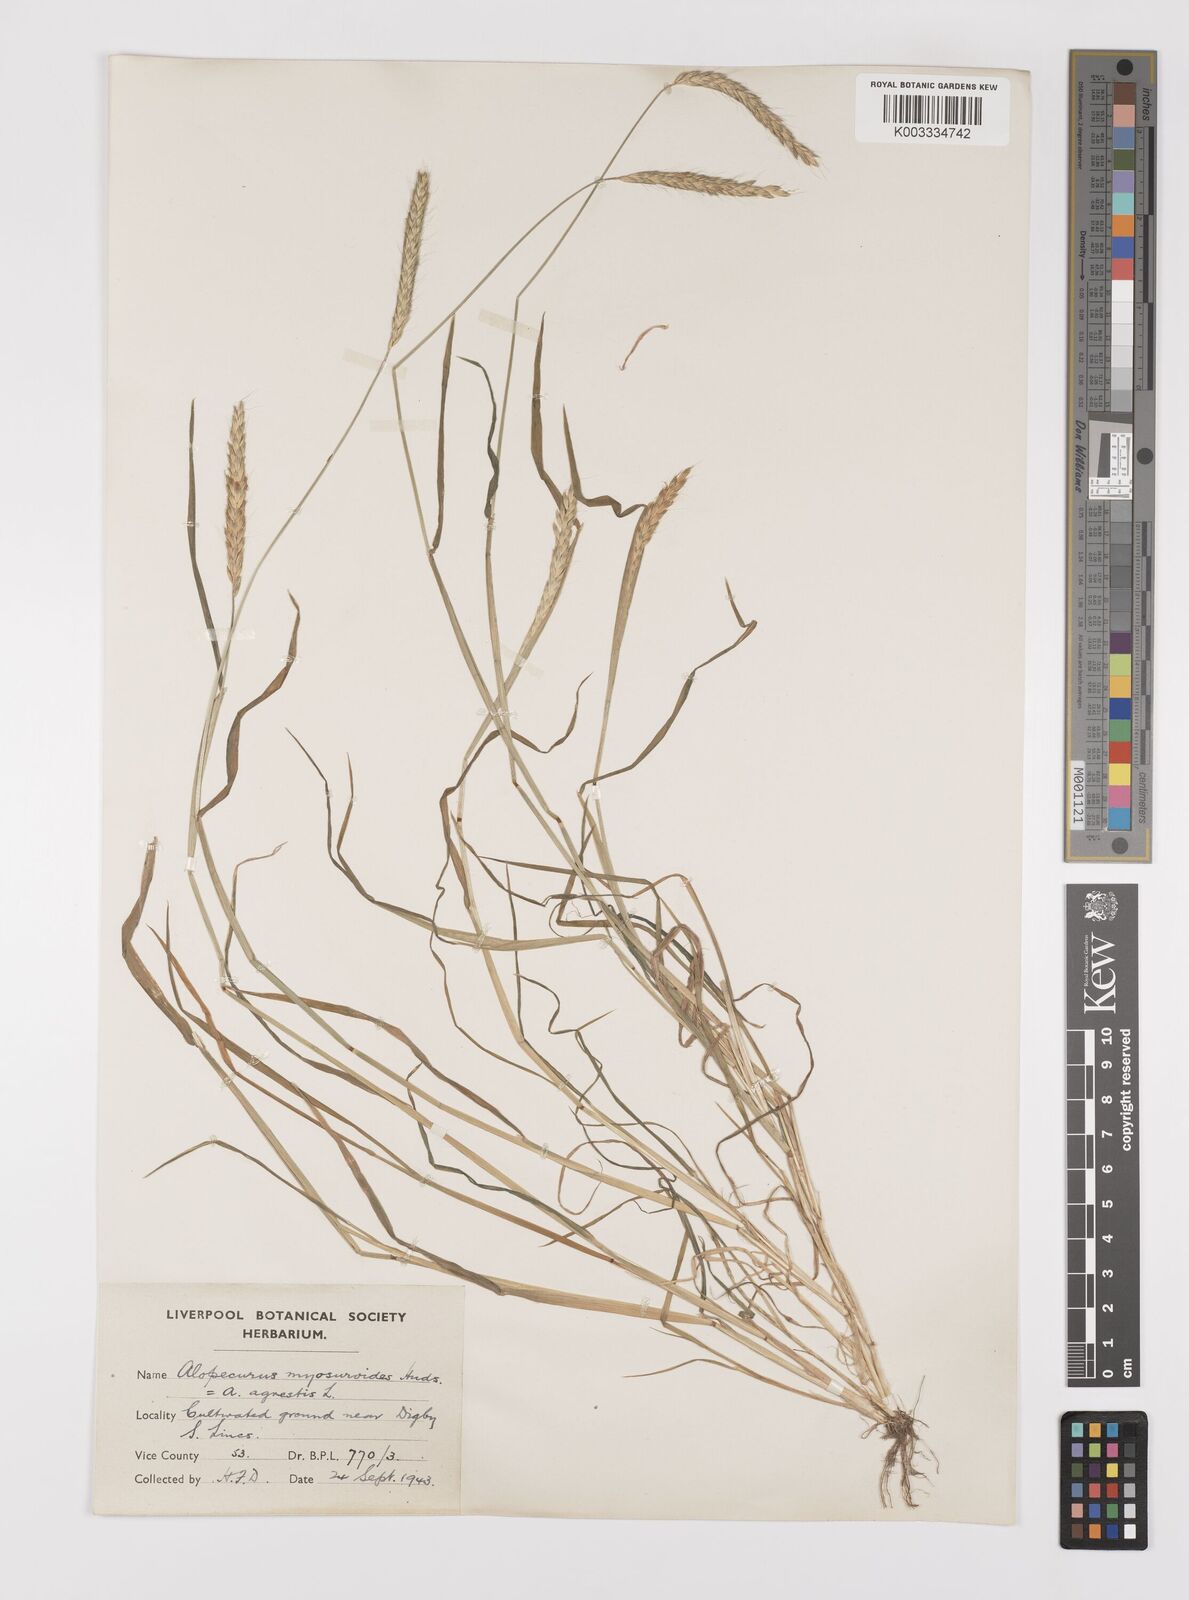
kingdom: Plantae
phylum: Tracheophyta
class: Liliopsida
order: Poales
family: Poaceae
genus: Alopecurus
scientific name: Alopecurus myosuroides
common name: Black-grass
